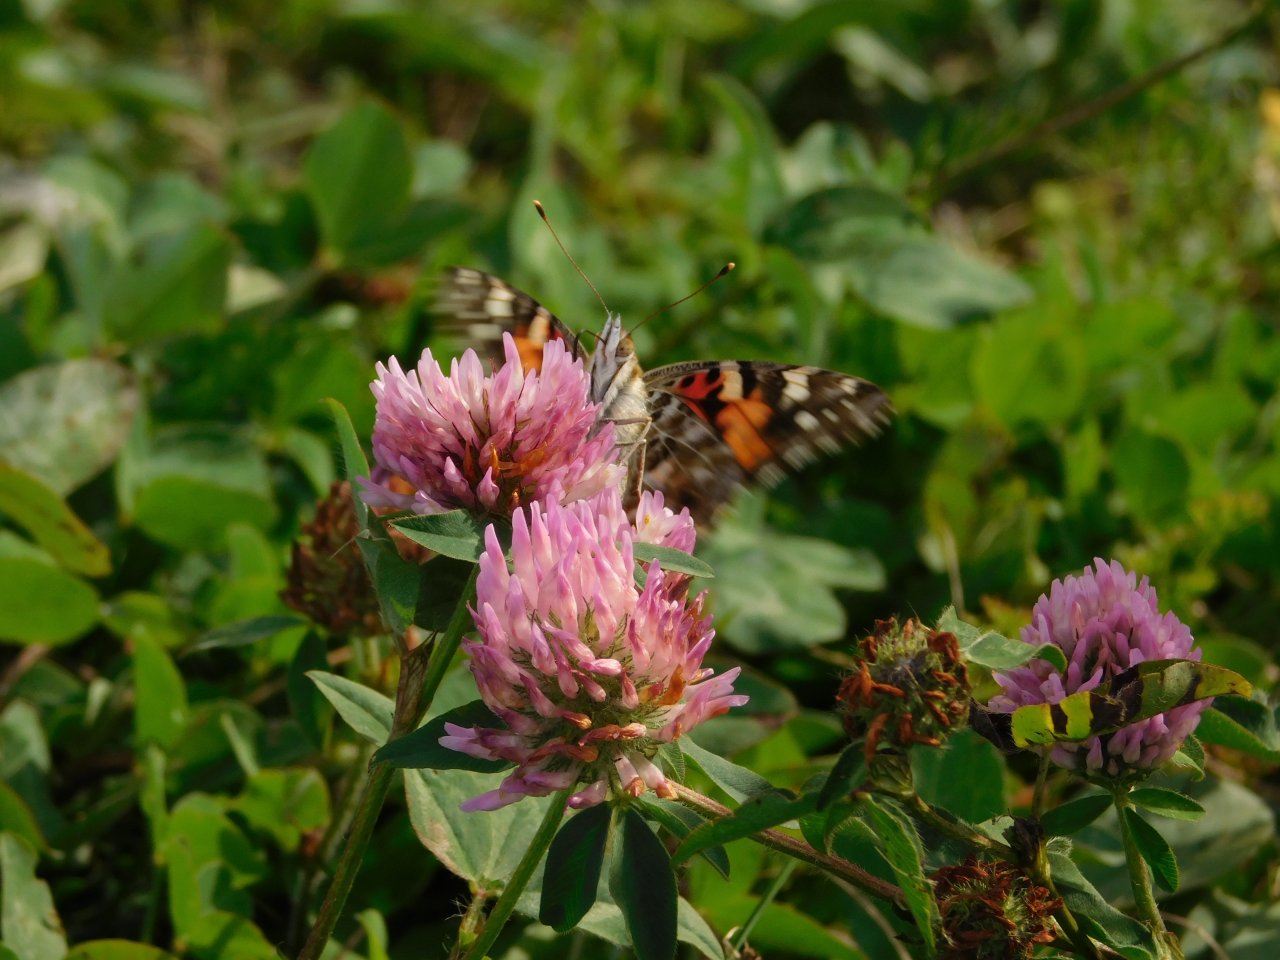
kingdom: Animalia
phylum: Arthropoda
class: Insecta
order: Lepidoptera
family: Nymphalidae
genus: Vanessa
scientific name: Vanessa cardui
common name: Painted Lady
